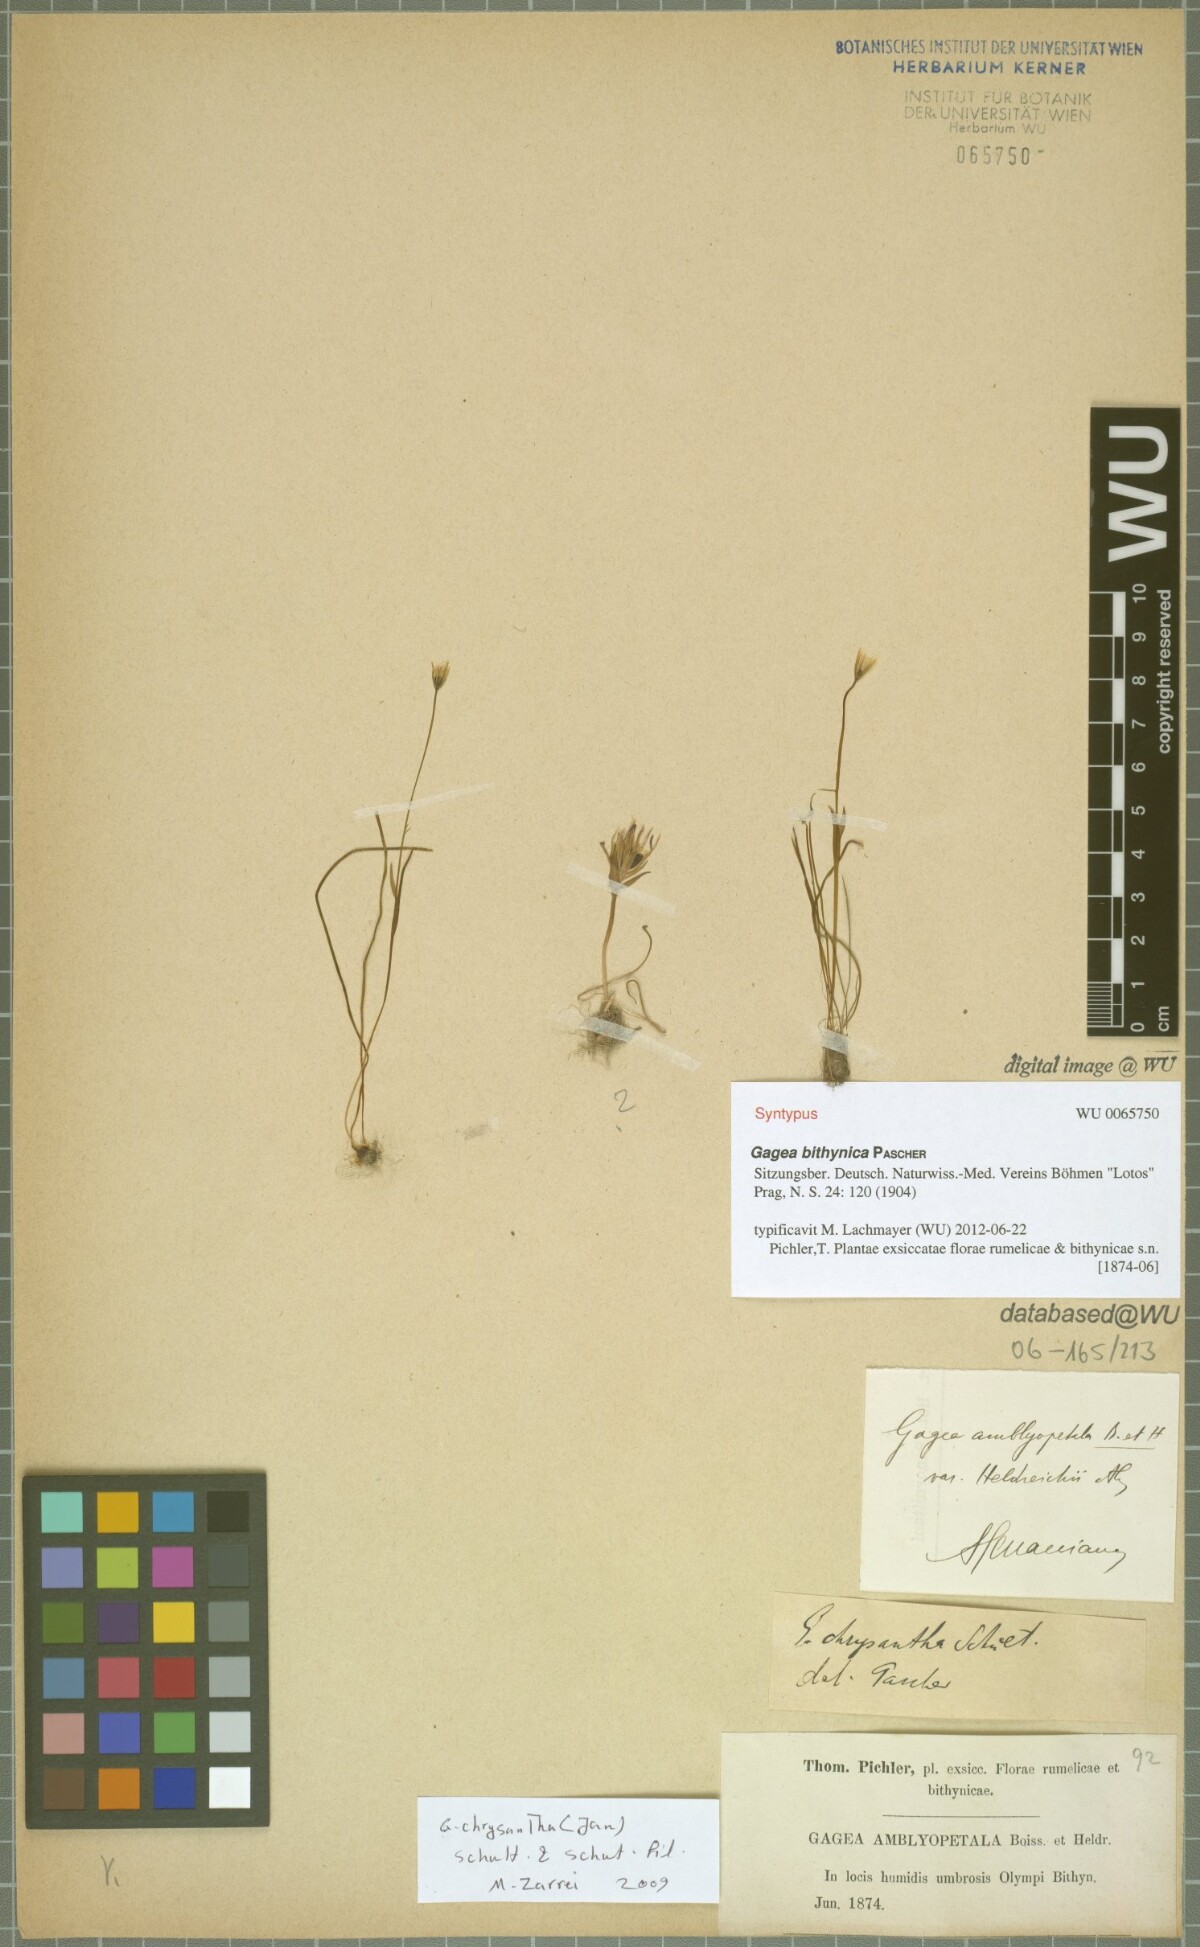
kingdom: Plantae
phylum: Tracheophyta
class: Liliopsida
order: Liliales
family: Liliaceae
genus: Gagea
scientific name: Gagea bithynica
